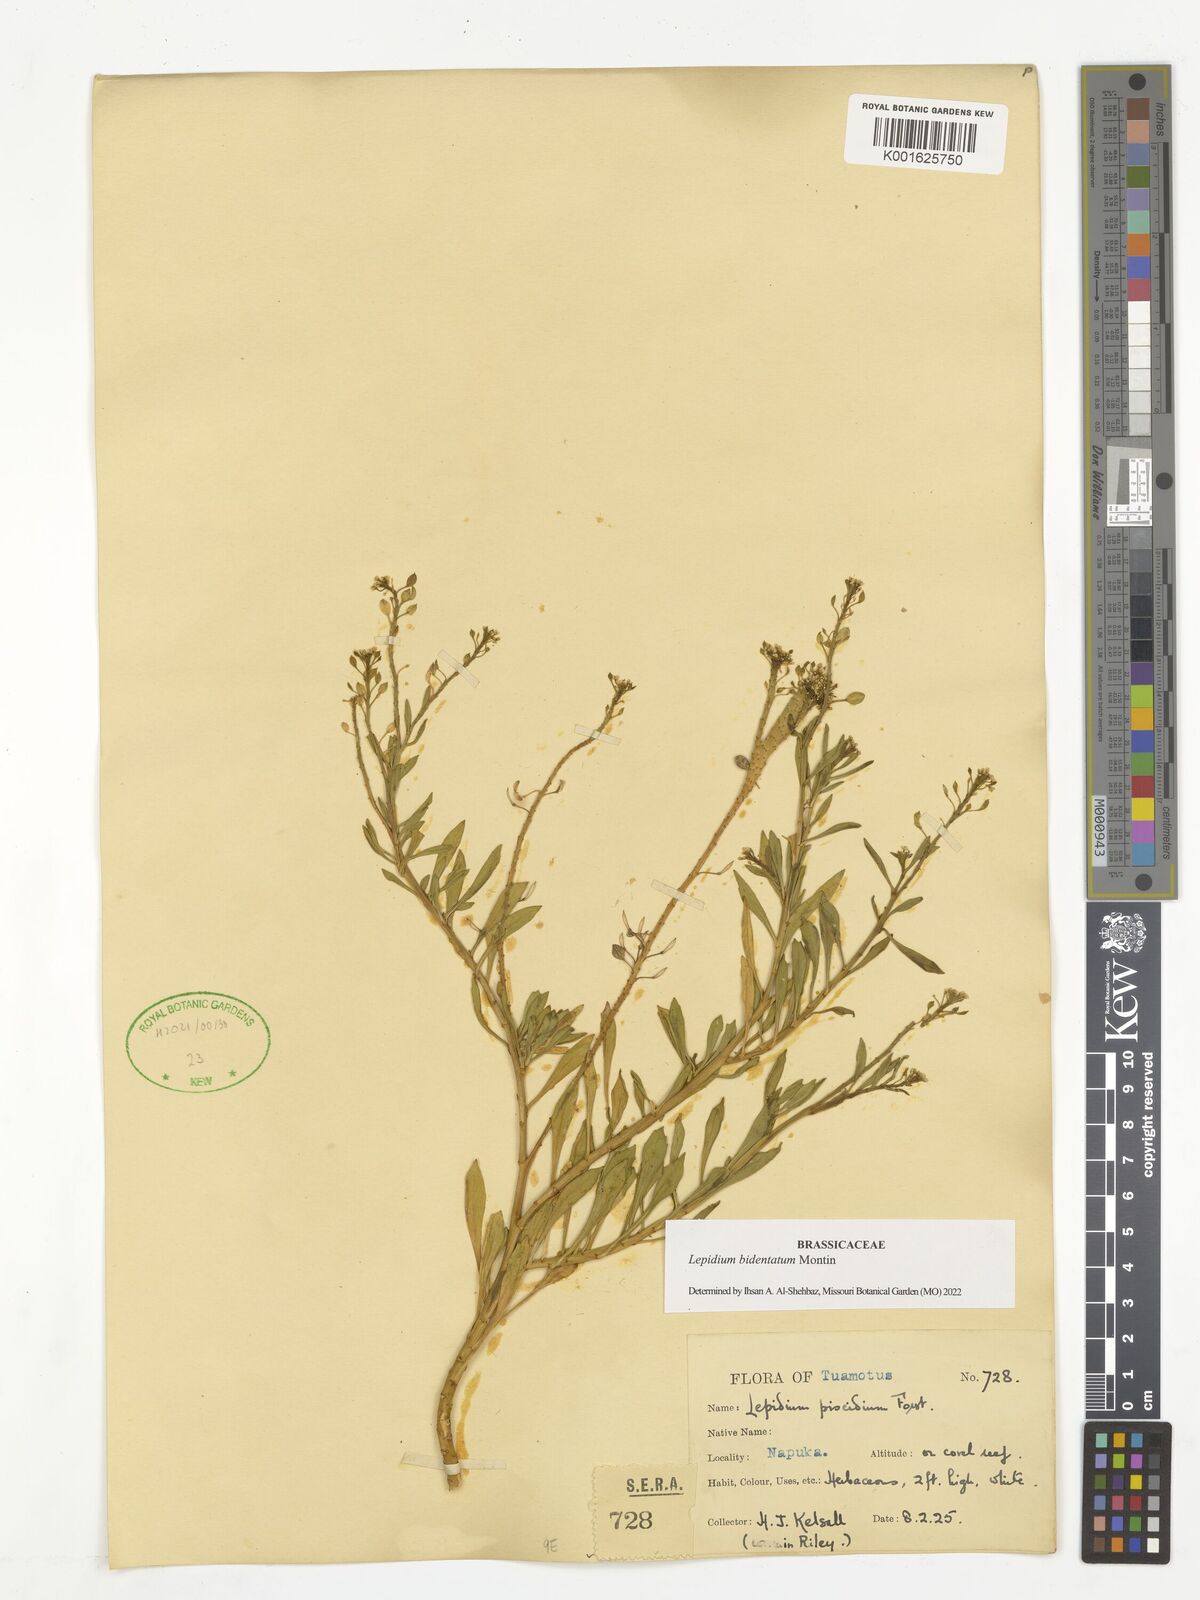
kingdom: Plantae
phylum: Tracheophyta
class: Magnoliopsida
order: Brassicales
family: Brassicaceae
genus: Lepidium
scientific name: Lepidium bidentatum
